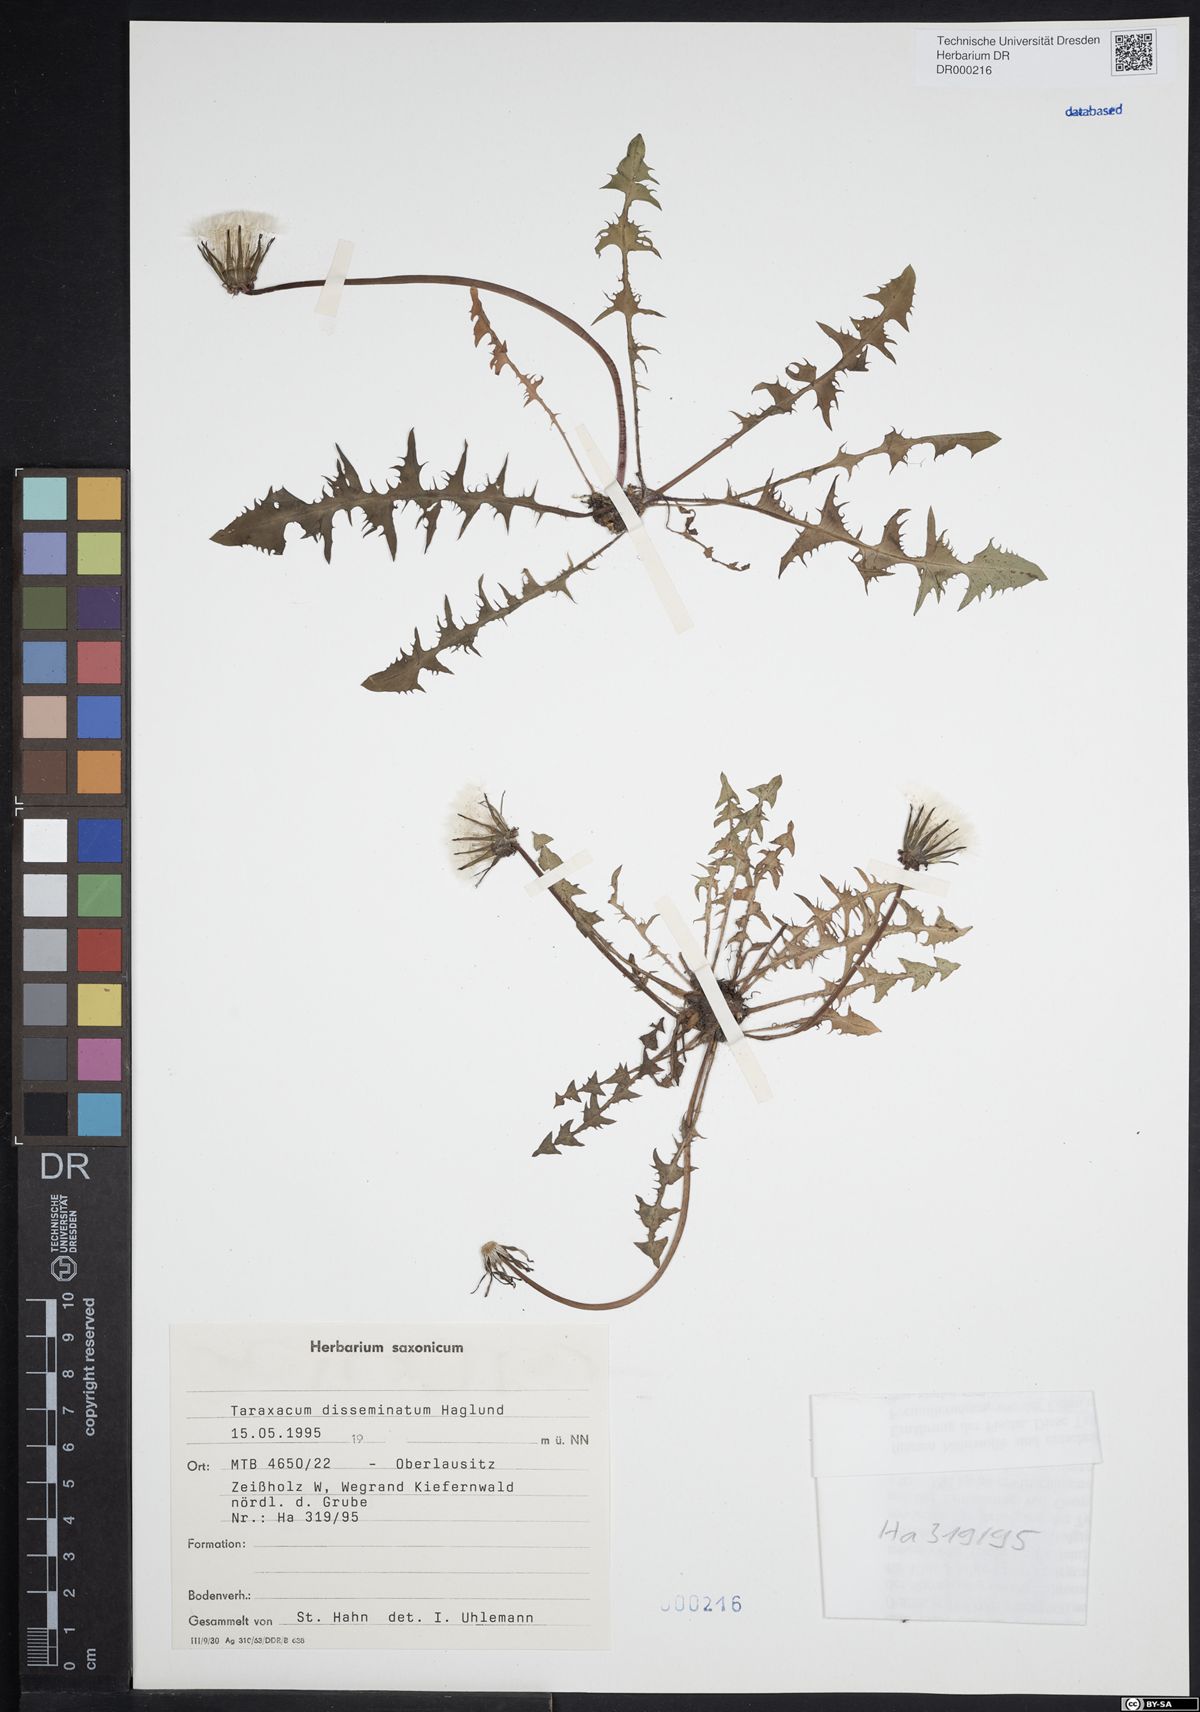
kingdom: Plantae
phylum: Tracheophyta
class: Magnoliopsida
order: Asterales
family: Asteraceae
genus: Taraxacum
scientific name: Taraxacum disseminatum
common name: Golden-fruited dandelion
